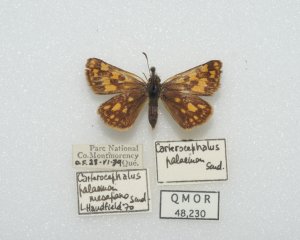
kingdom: Animalia
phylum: Arthropoda
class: Insecta
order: Lepidoptera
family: Hesperiidae
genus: Carterocephalus
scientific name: Carterocephalus palaemon
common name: Chequered Skipper
